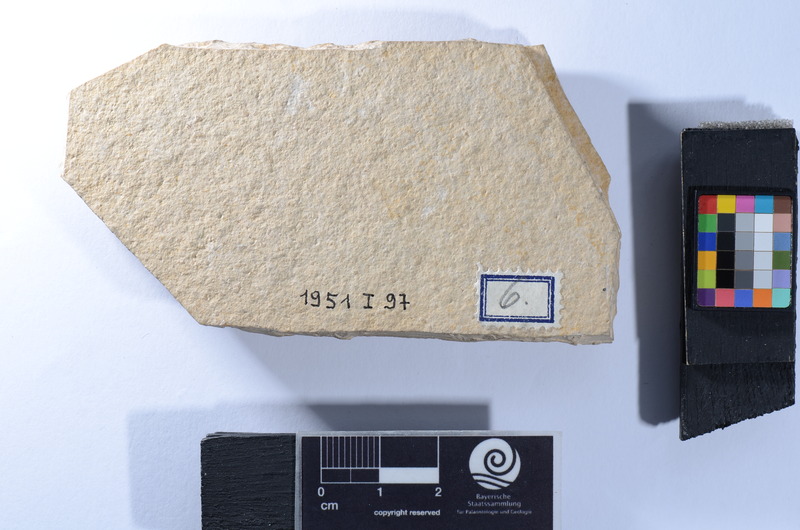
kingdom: Animalia
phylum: Chordata
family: Aspidorhynchidae
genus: Aspidorhynchus
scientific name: Aspidorhynchus
